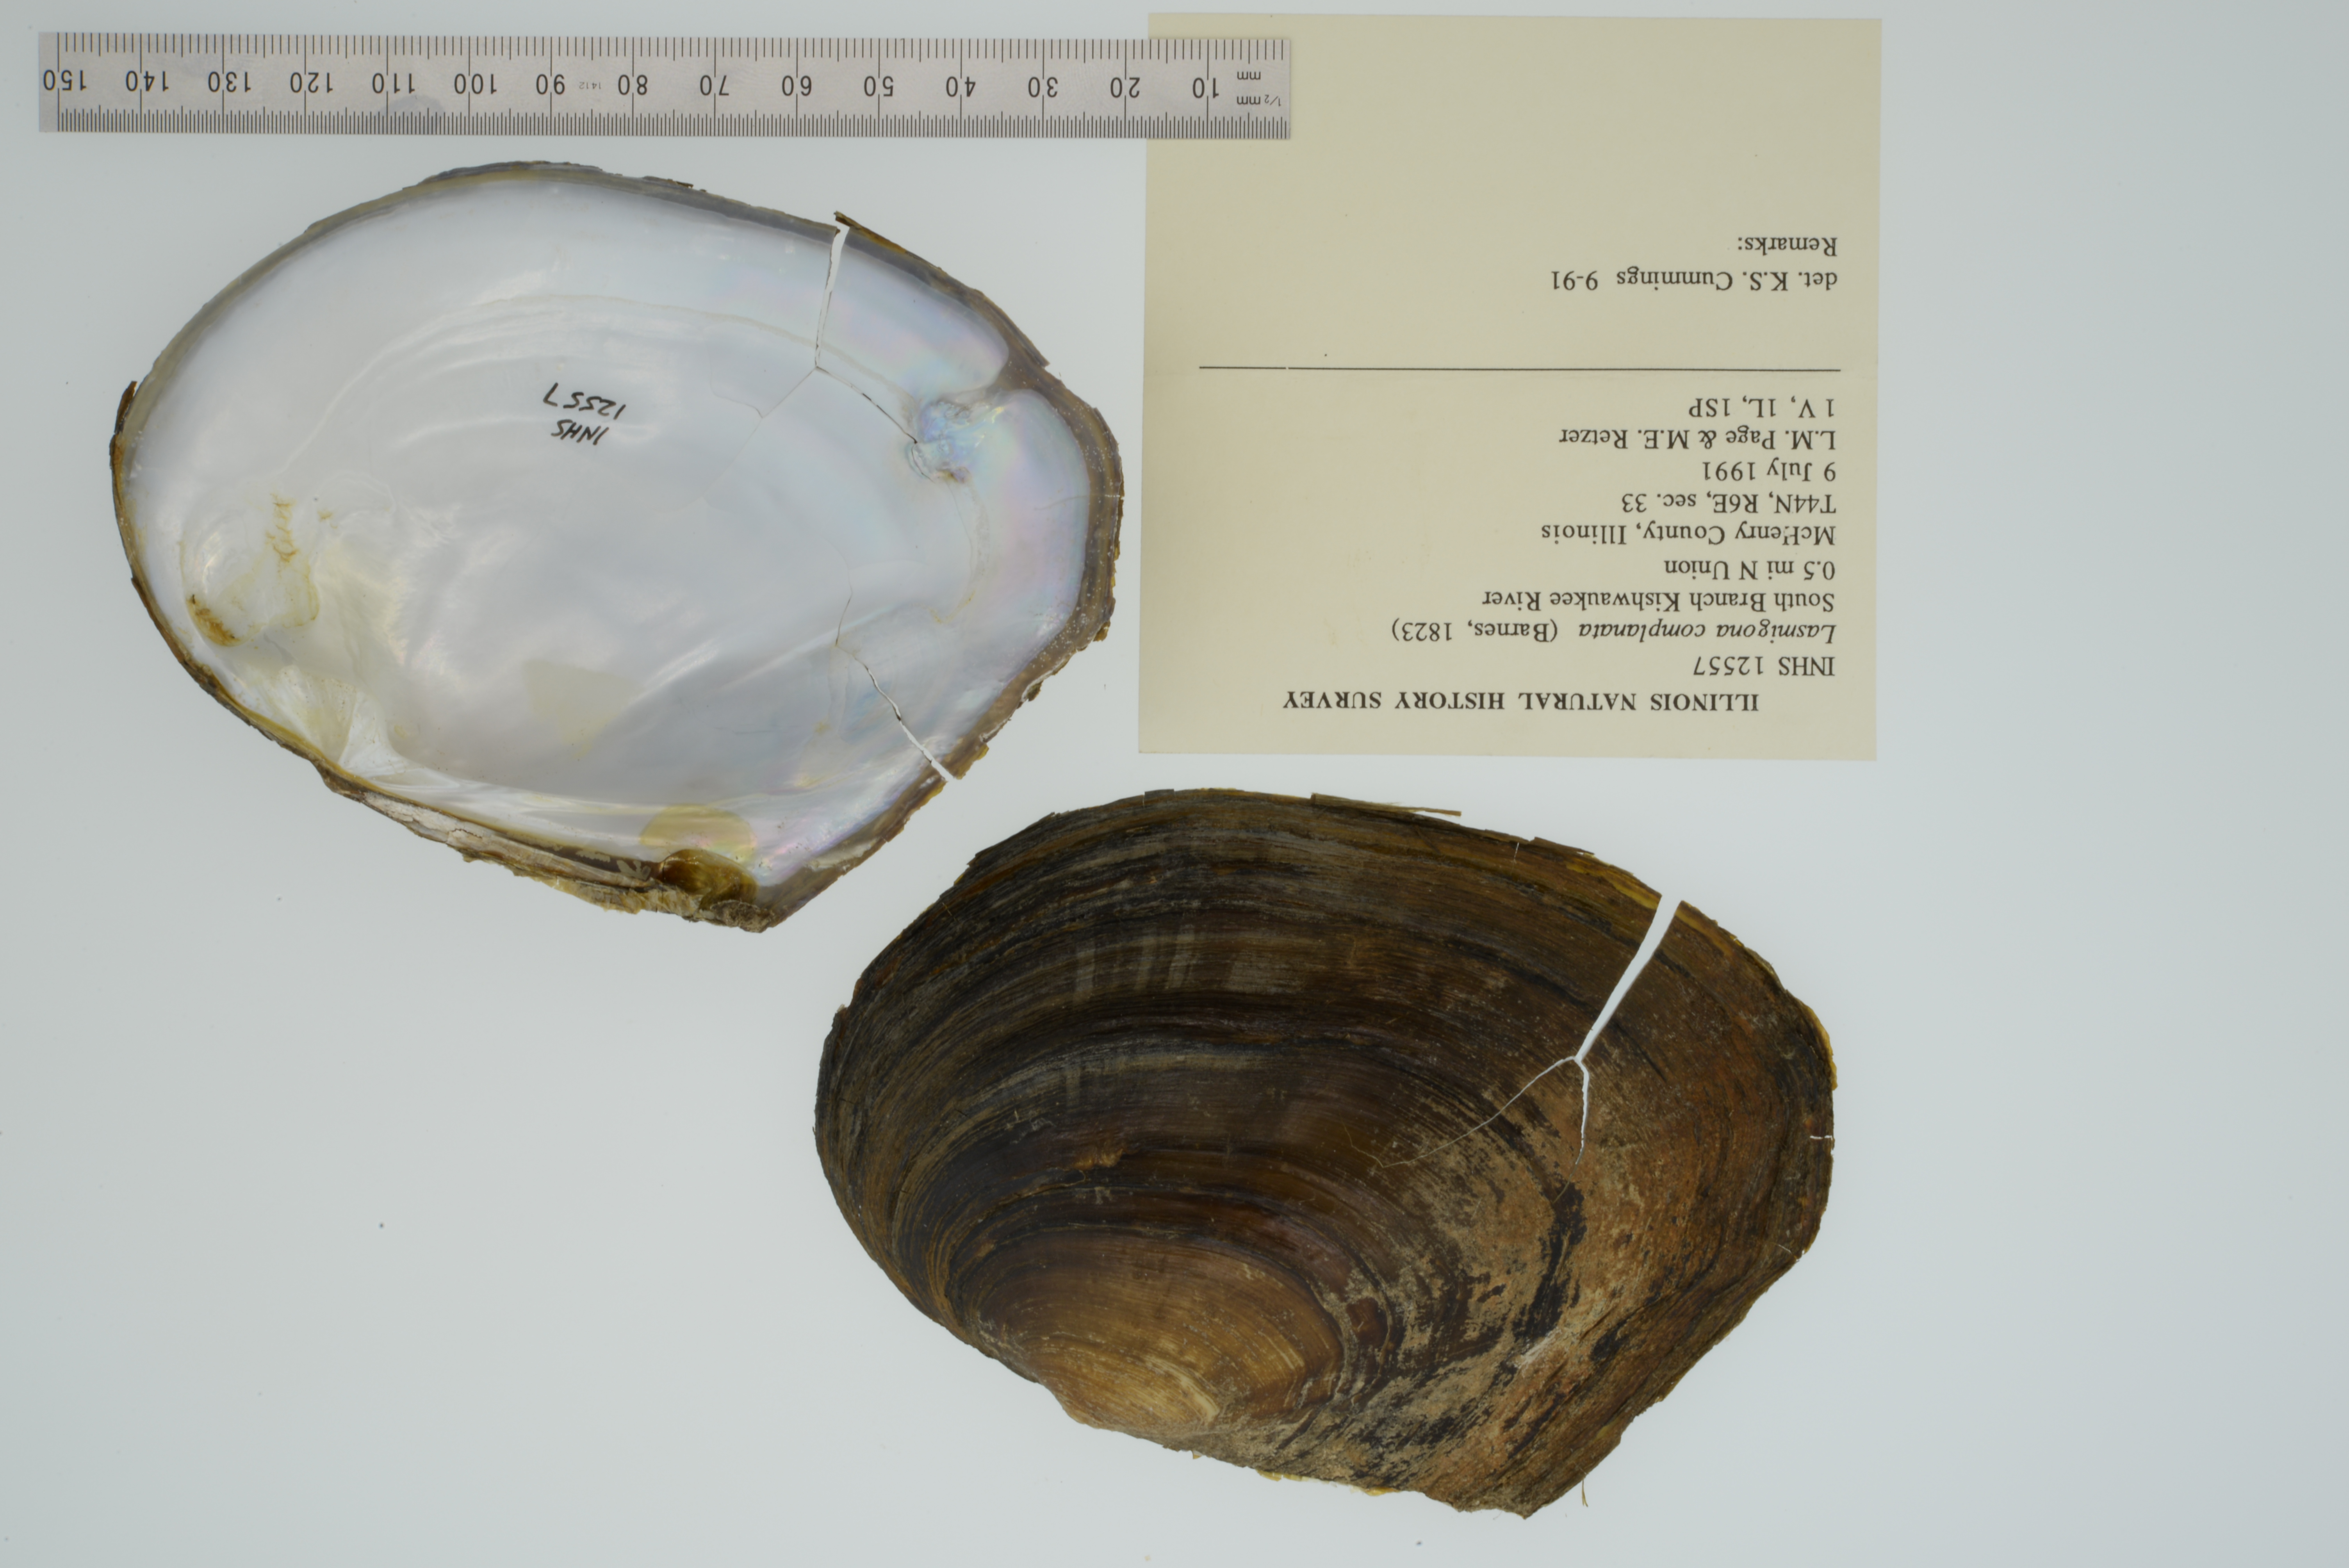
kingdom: Animalia
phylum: Mollusca
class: Bivalvia
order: Unionida
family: Unionidae
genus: Lasmigona
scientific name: Lasmigona complanata
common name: White heelsplitter
